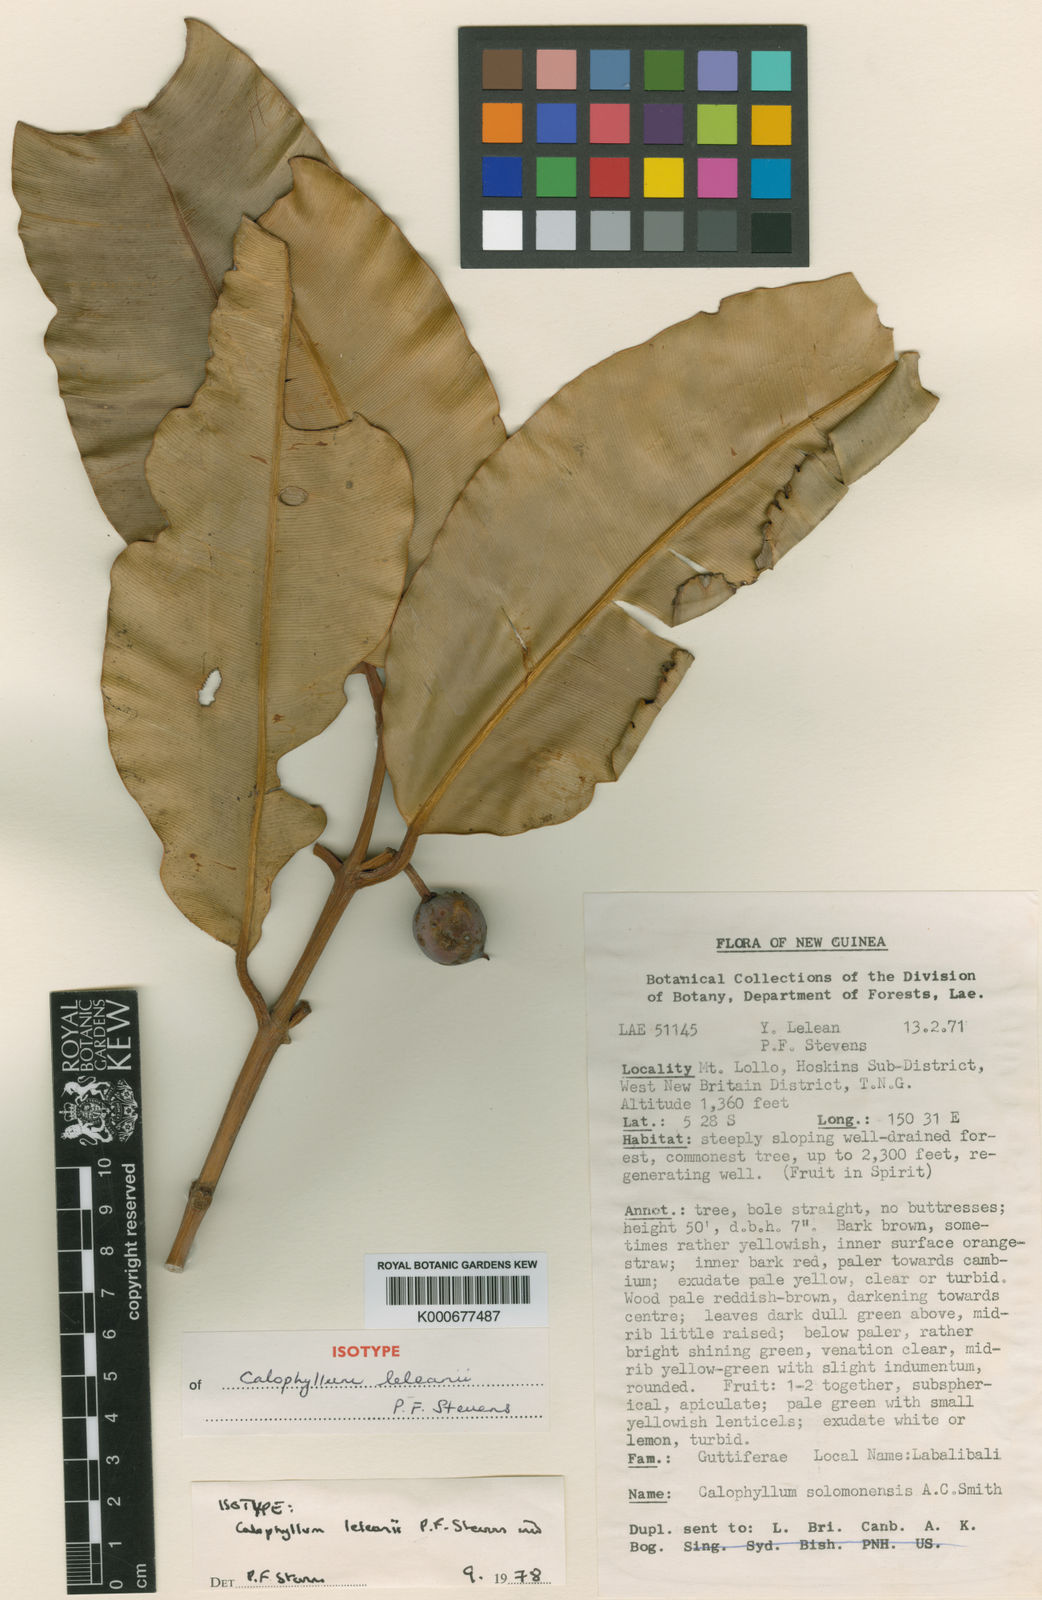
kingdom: Plantae
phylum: Tracheophyta
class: Magnoliopsida
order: Malpighiales
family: Calophyllaceae
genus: Calophyllum
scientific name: Calophyllum leleanii
